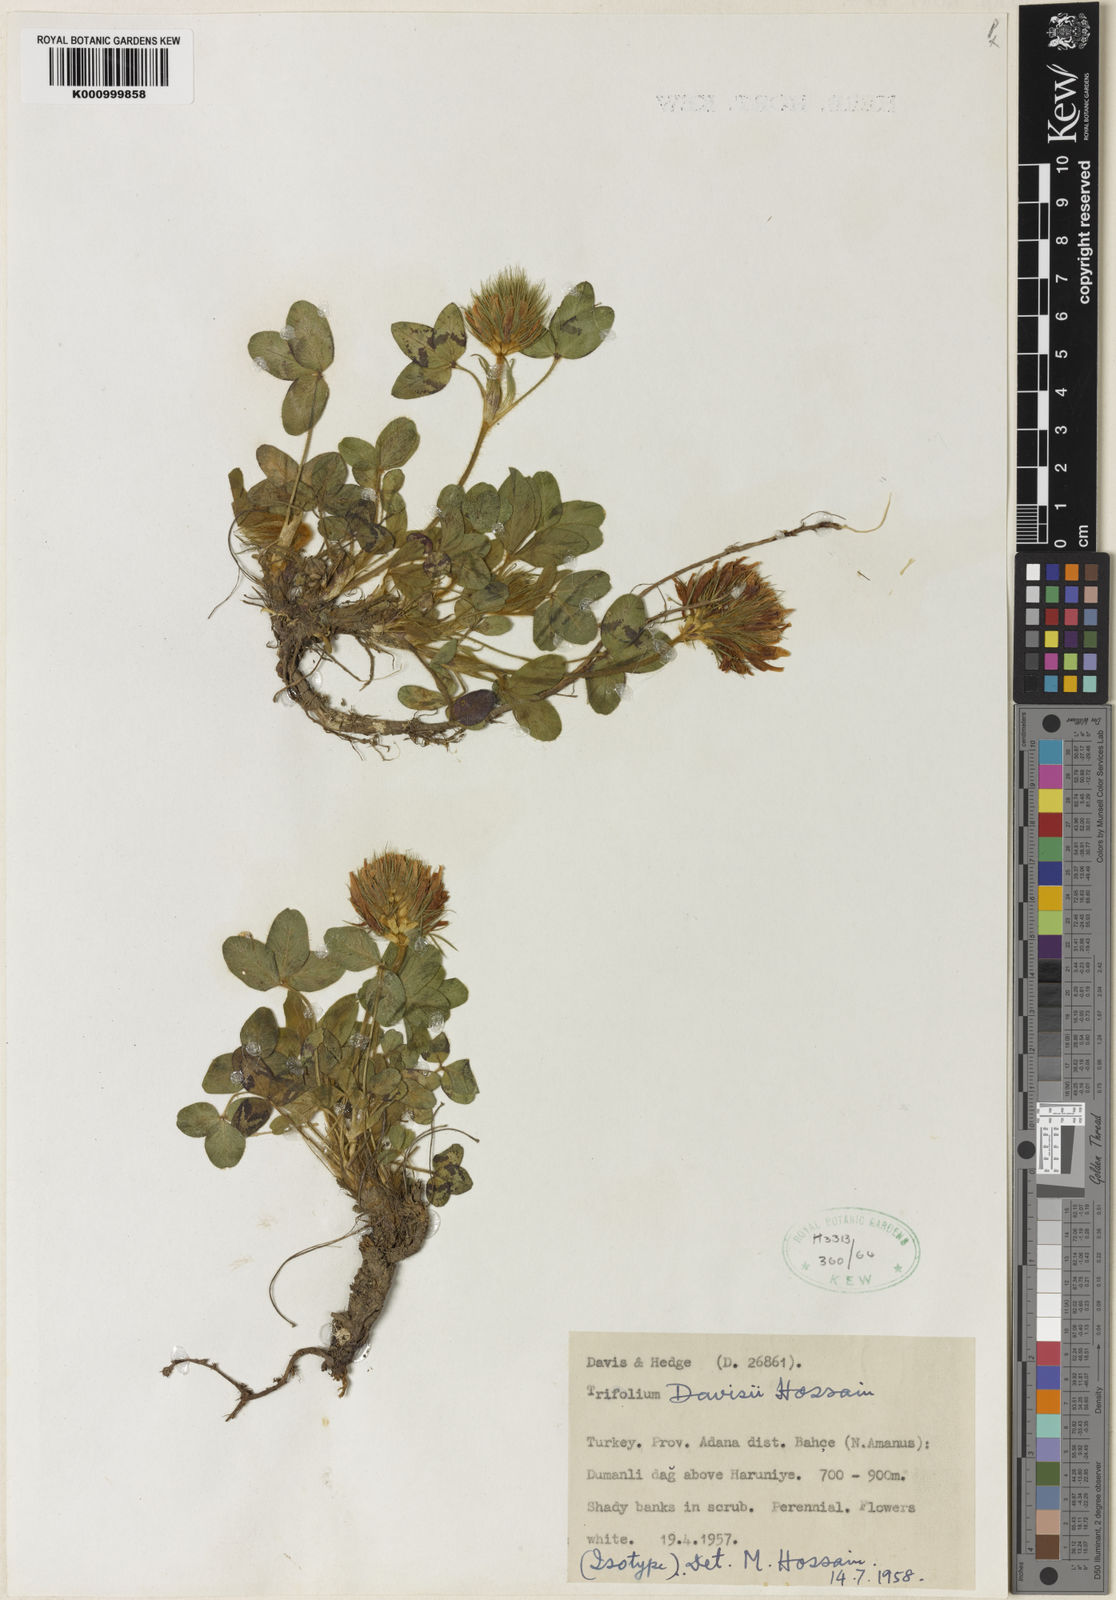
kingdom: Plantae
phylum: Tracheophyta
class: Magnoliopsida
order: Fabales
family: Fabaceae
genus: Trifolium
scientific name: Trifolium davisii
